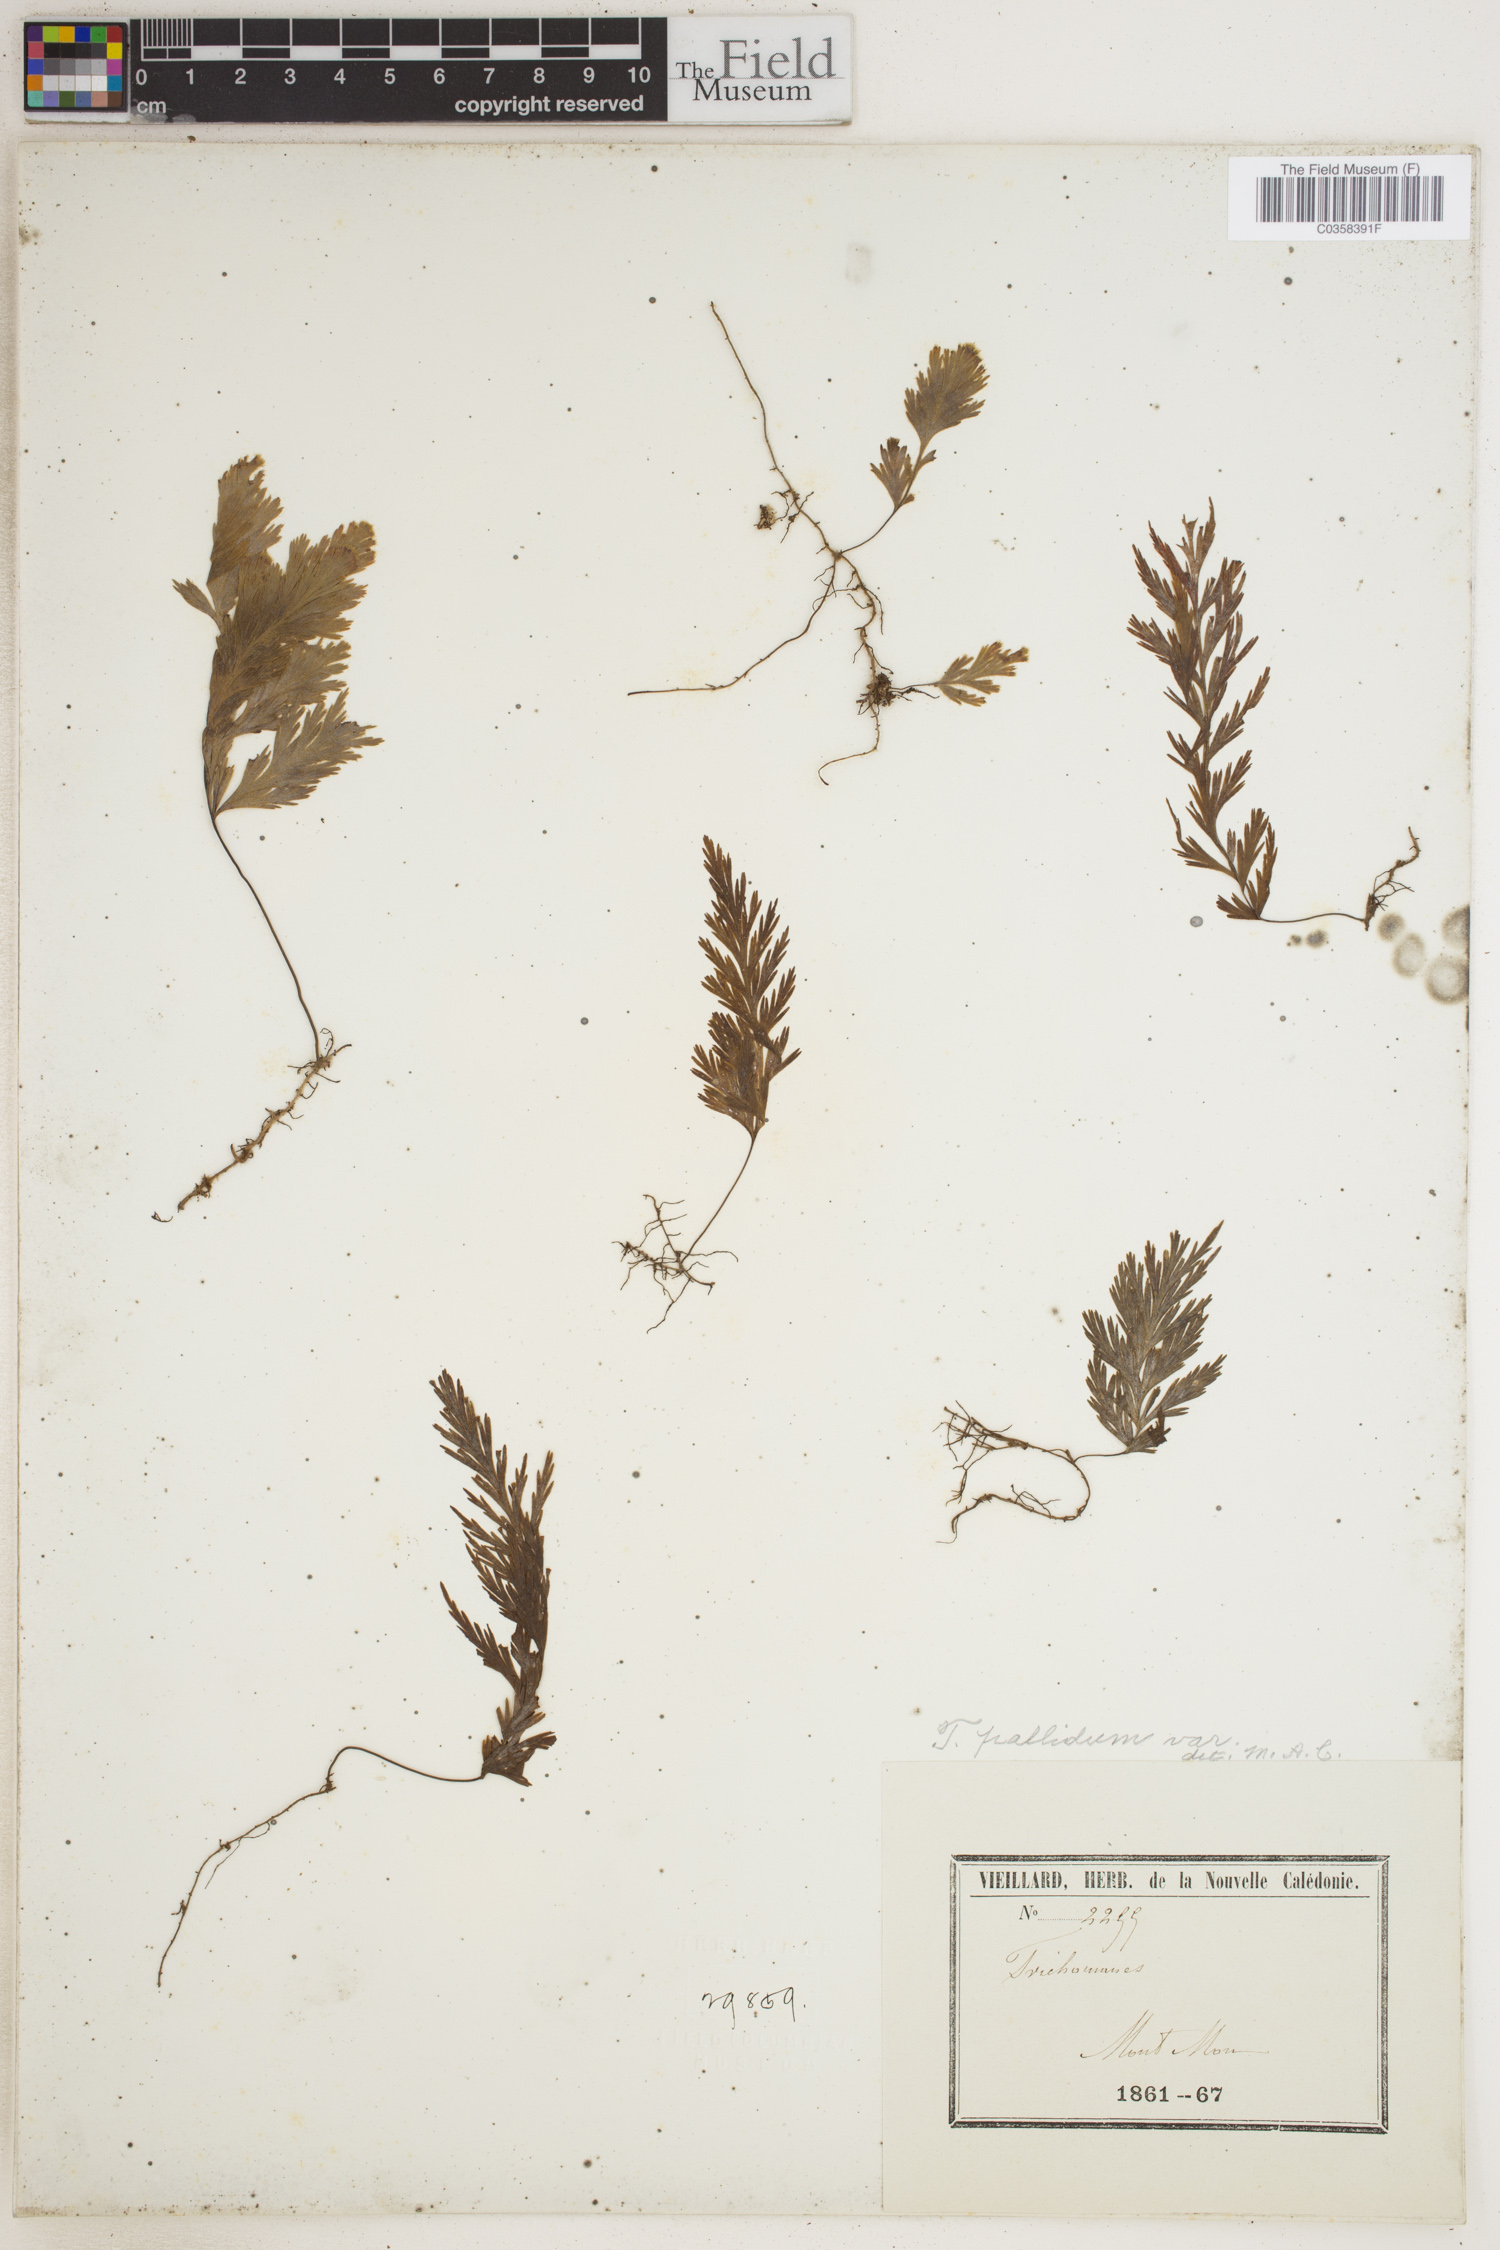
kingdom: Plantae
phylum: Tracheophyta
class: Polypodiopsida
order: Hymenophyllales
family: Hymenophyllaceae
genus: Hymenophyllum
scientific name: Hymenophyllum pallidum
